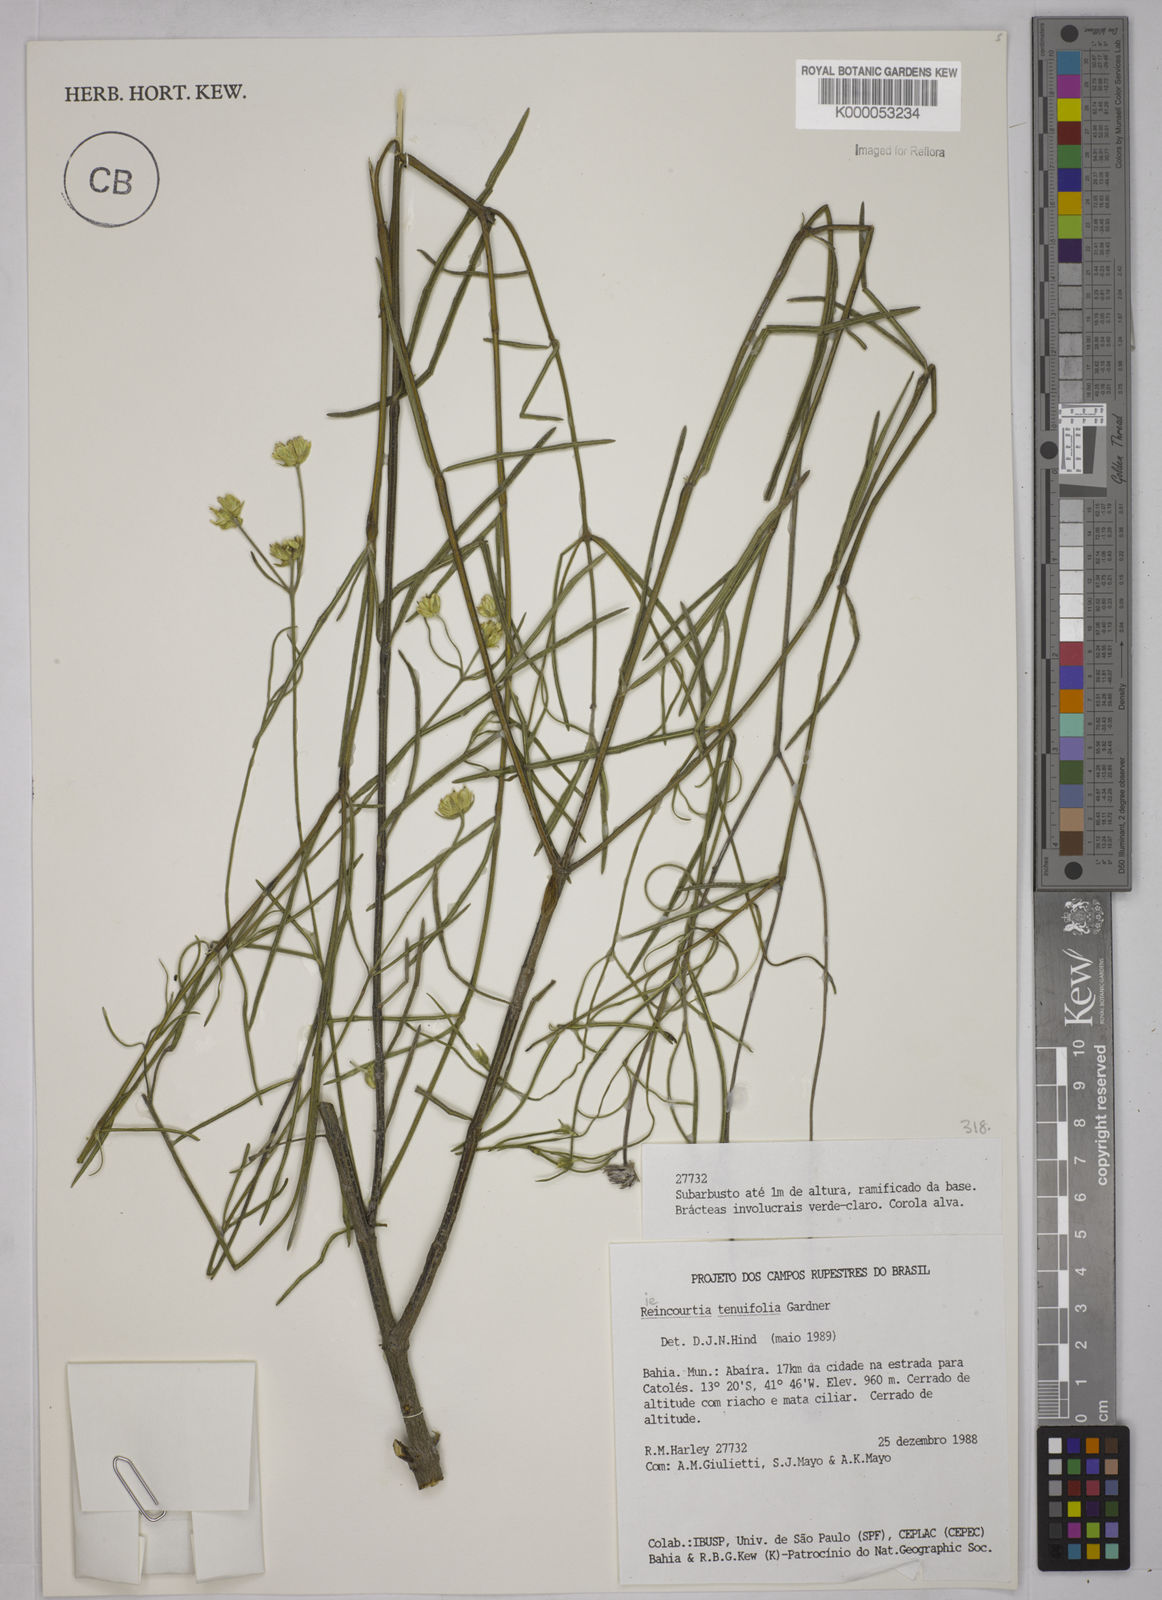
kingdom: Plantae
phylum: Tracheophyta
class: Magnoliopsida
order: Asterales
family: Asteraceae
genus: Riencourtia
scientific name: Riencourtia tenuifolia
